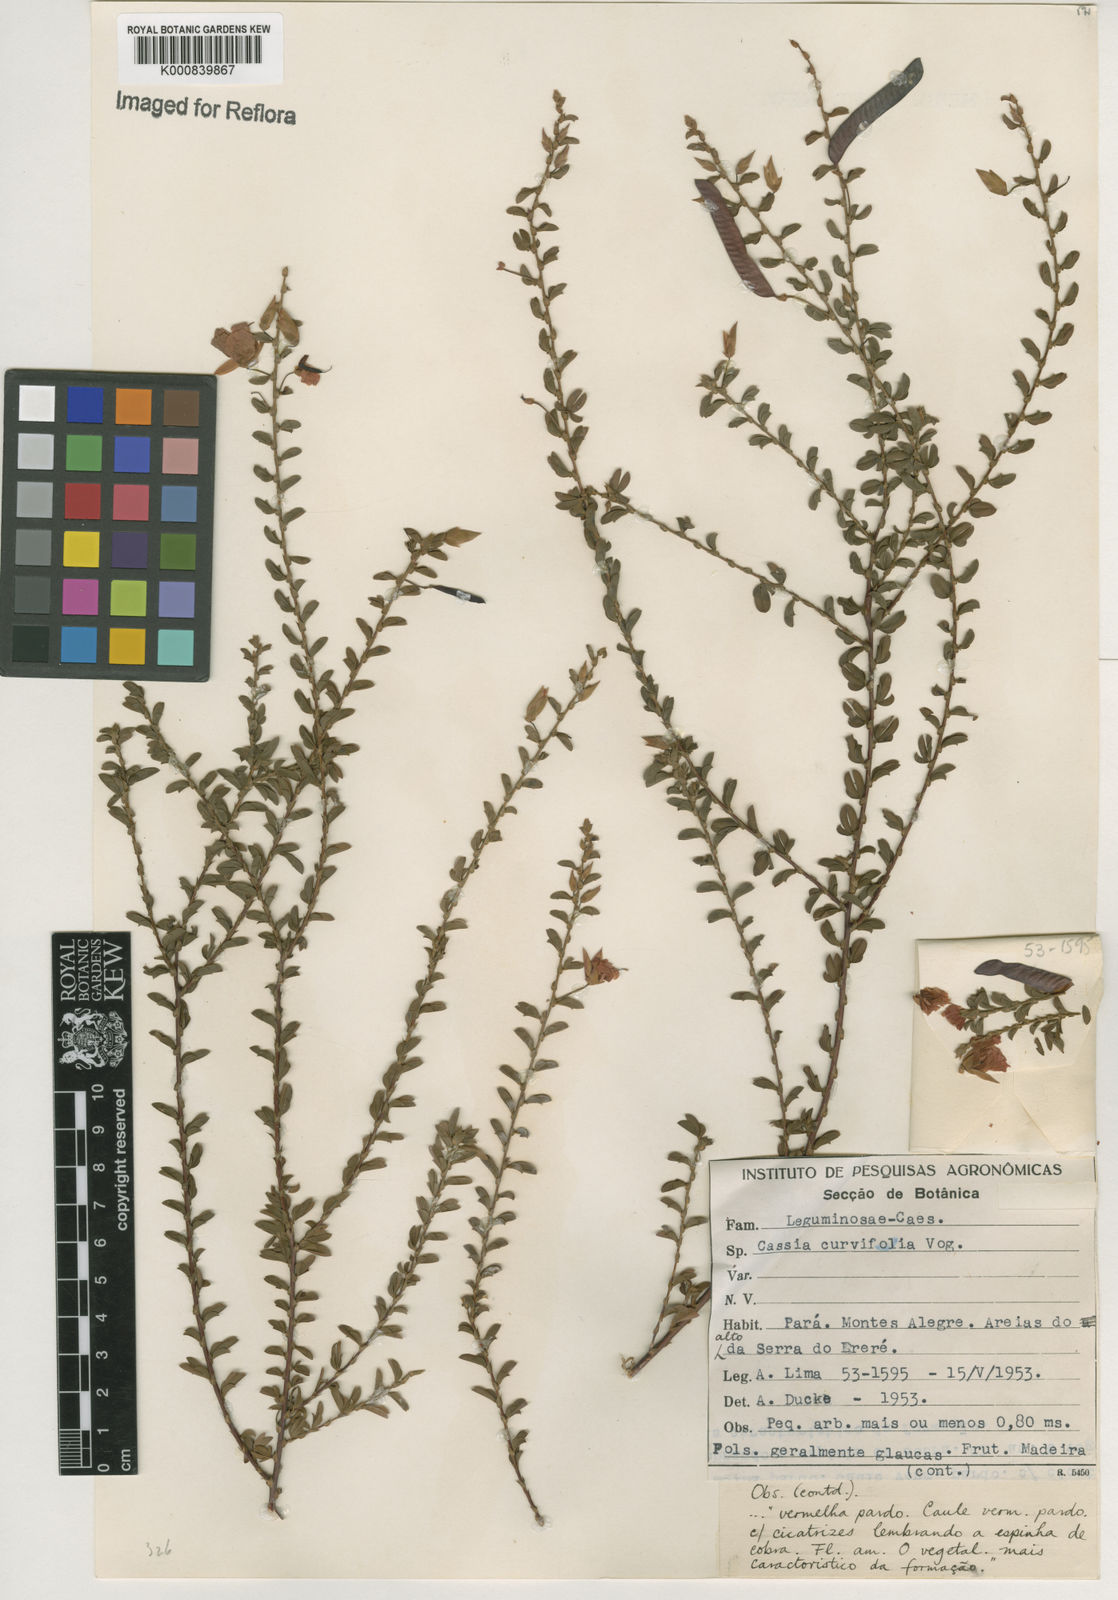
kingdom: Plantae
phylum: Tracheophyta
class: Magnoliopsida
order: Fabales
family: Fabaceae
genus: Chamaecrista
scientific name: Chamaecrista ramosa
